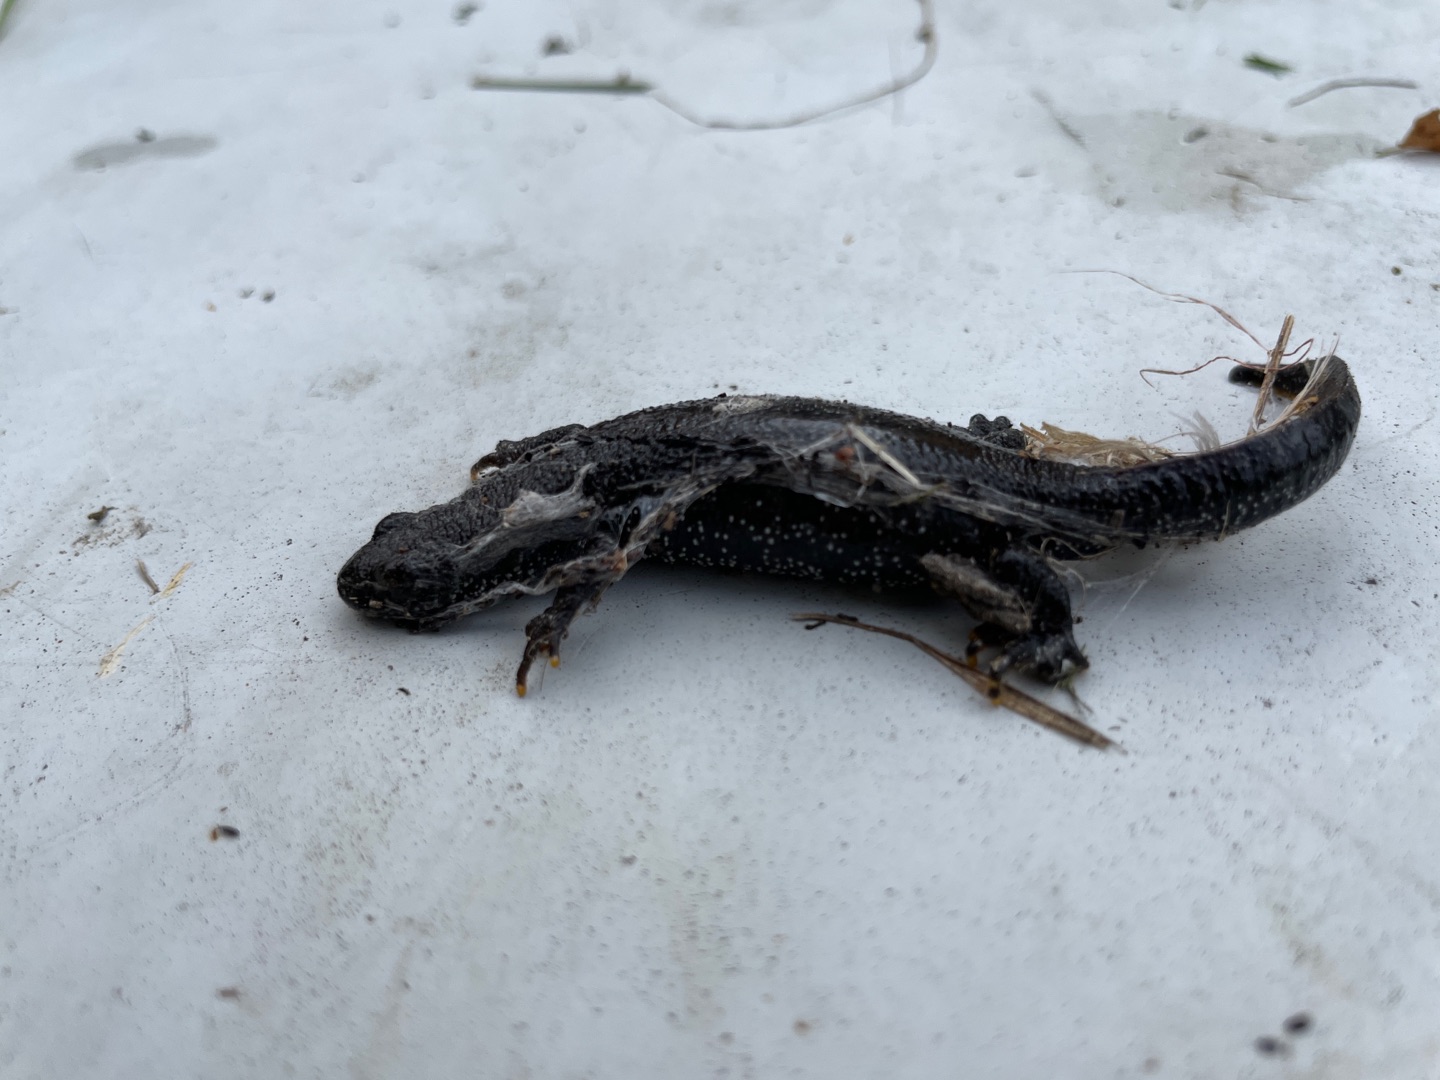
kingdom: Animalia
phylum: Chordata
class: Amphibia
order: Caudata
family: Salamandridae
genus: Triturus
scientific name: Triturus cristatus
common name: Stor vandsalamander
